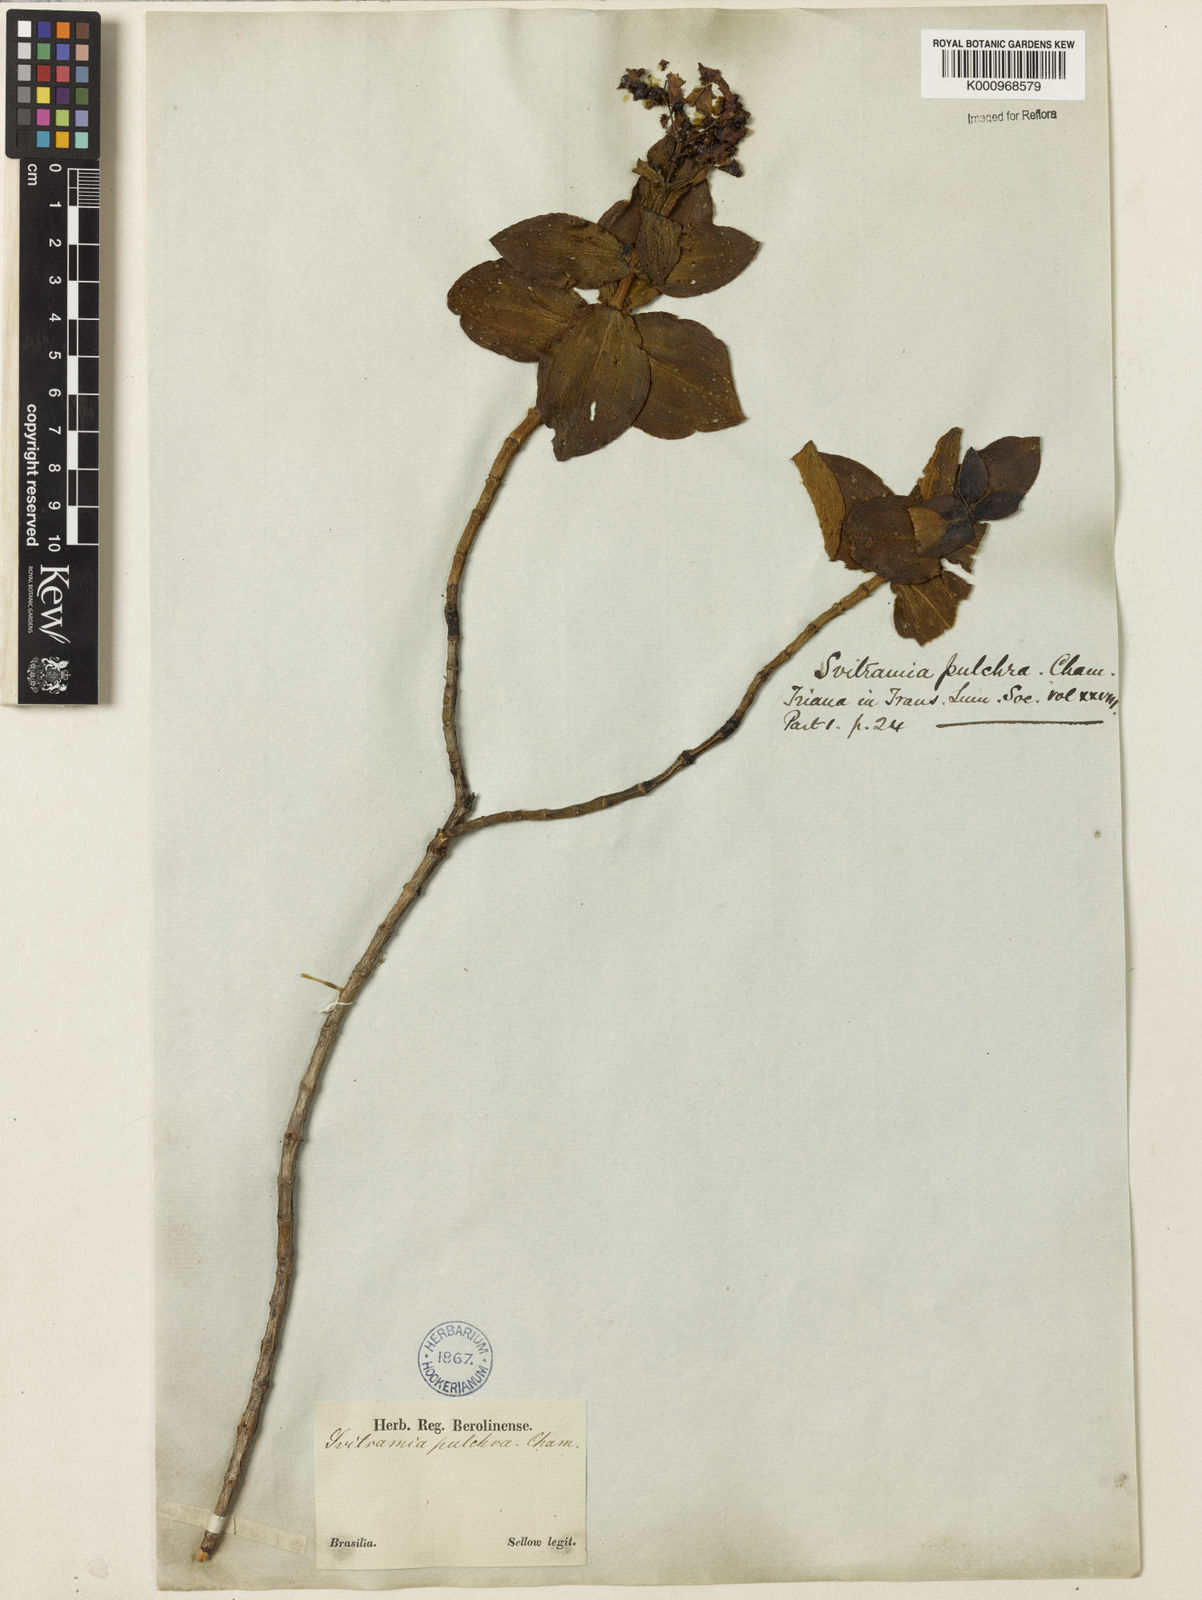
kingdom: Plantae
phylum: Tracheophyta
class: Magnoliopsida
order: Myrtales
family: Melastomataceae
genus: Pleroma
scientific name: Pleroma bandeirae
